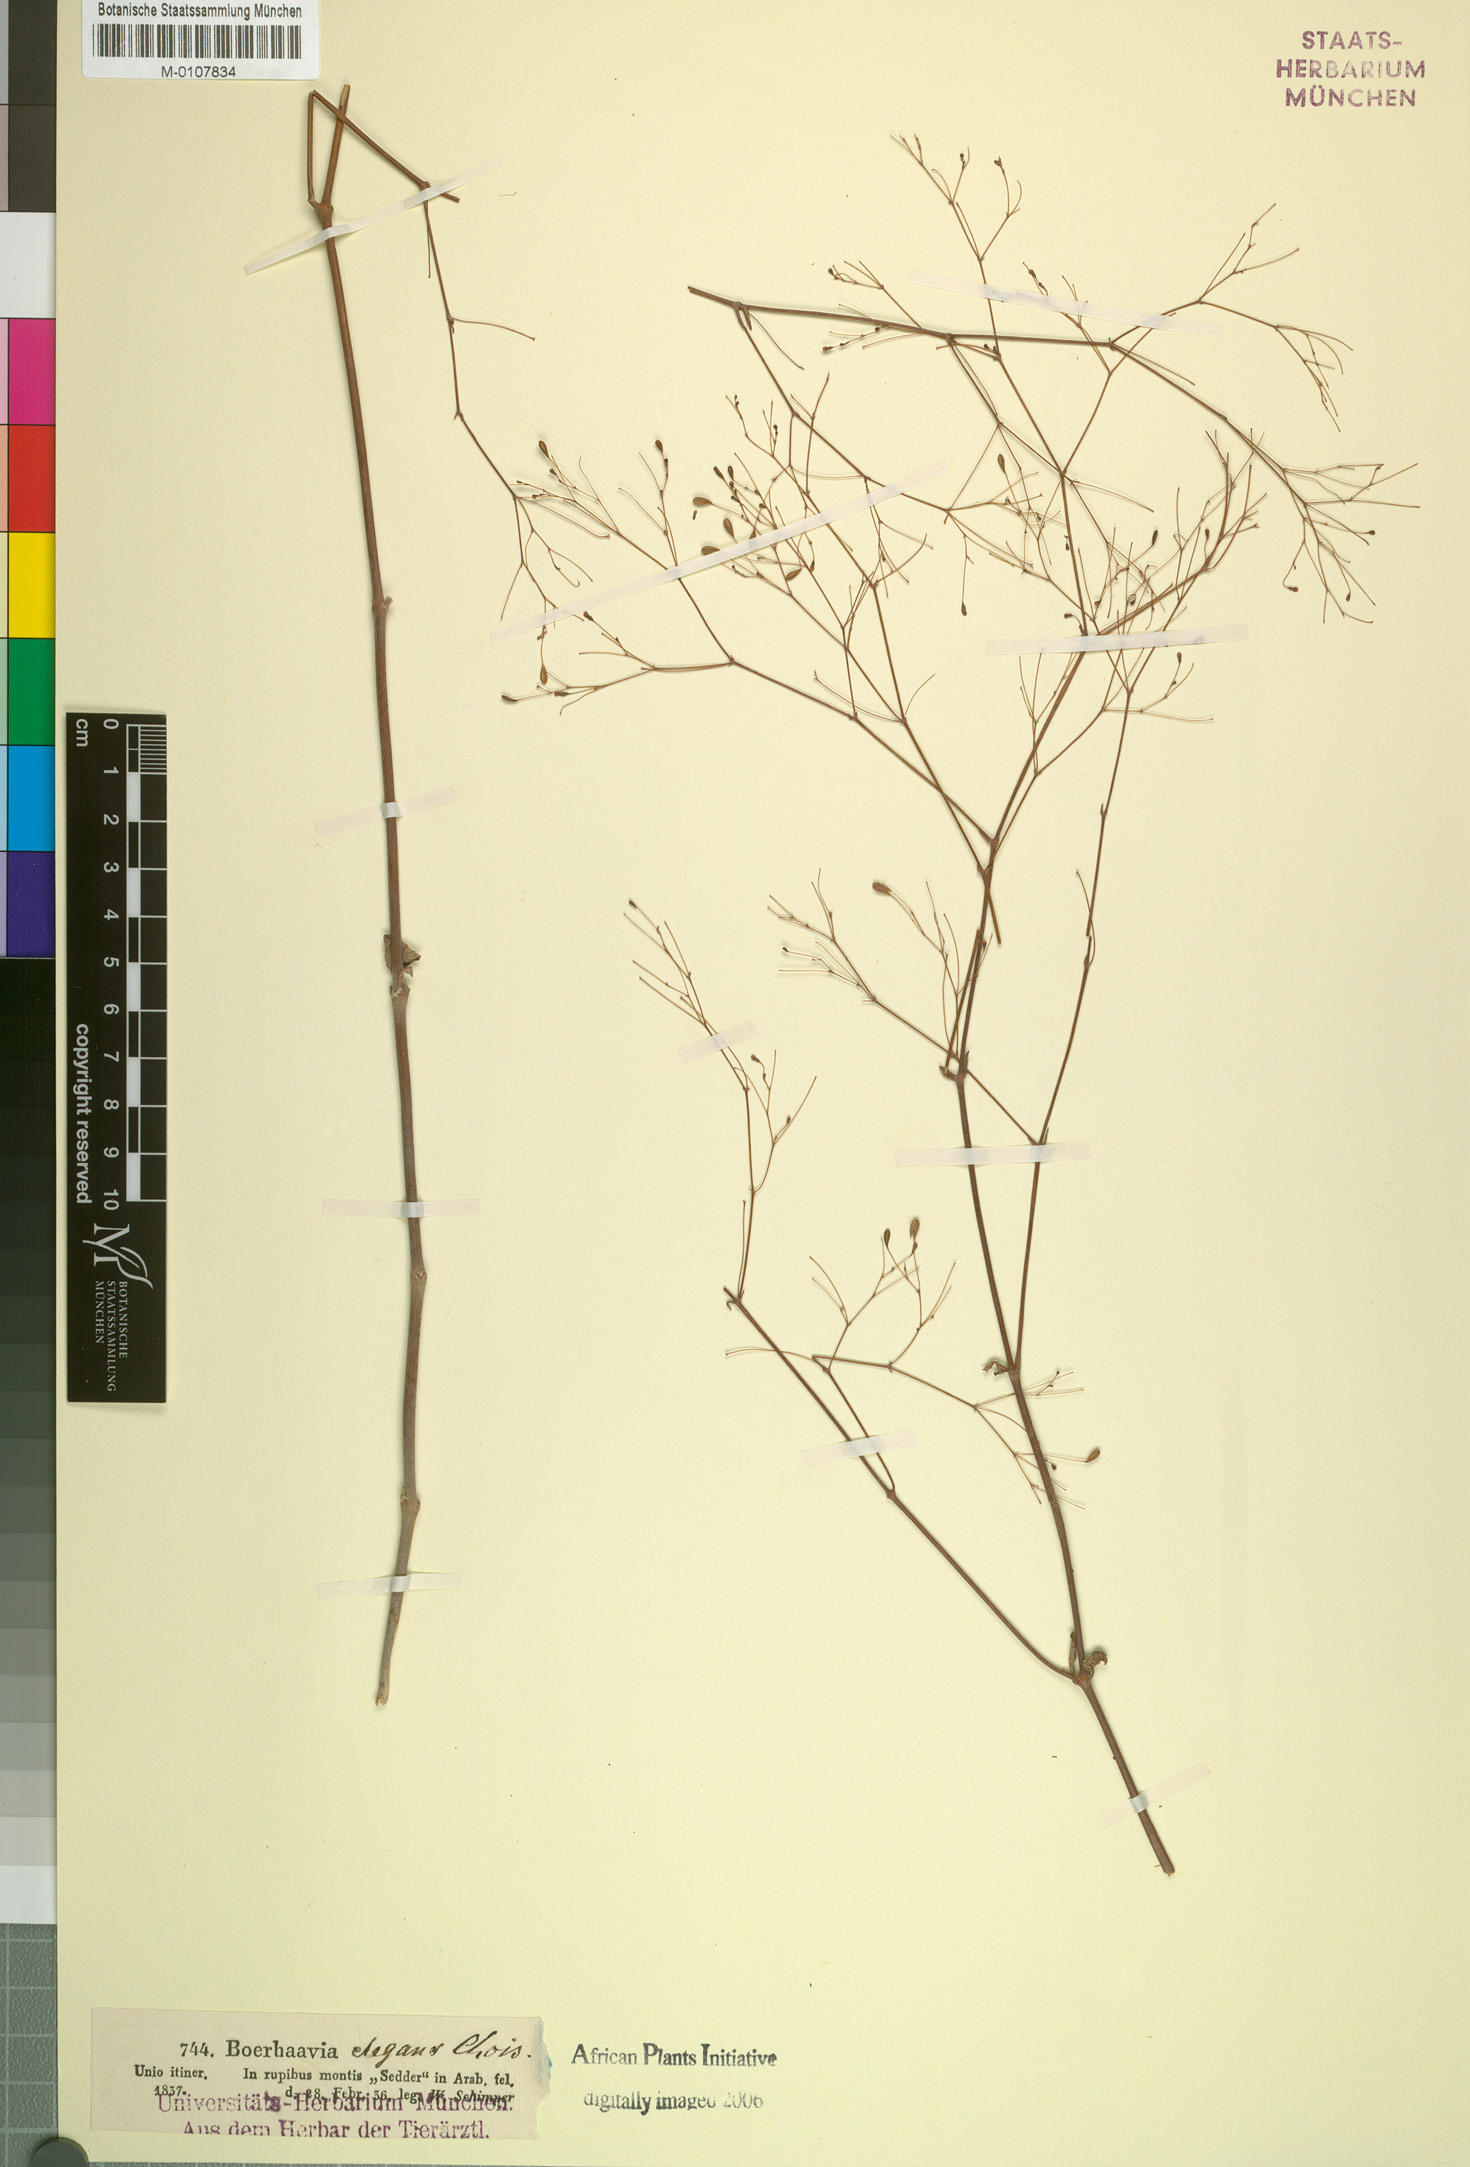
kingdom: Plantae
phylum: Tracheophyta
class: Magnoliopsida
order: Caryophyllales
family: Nyctaginaceae
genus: Boerhavia
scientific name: Boerhavia elegans
